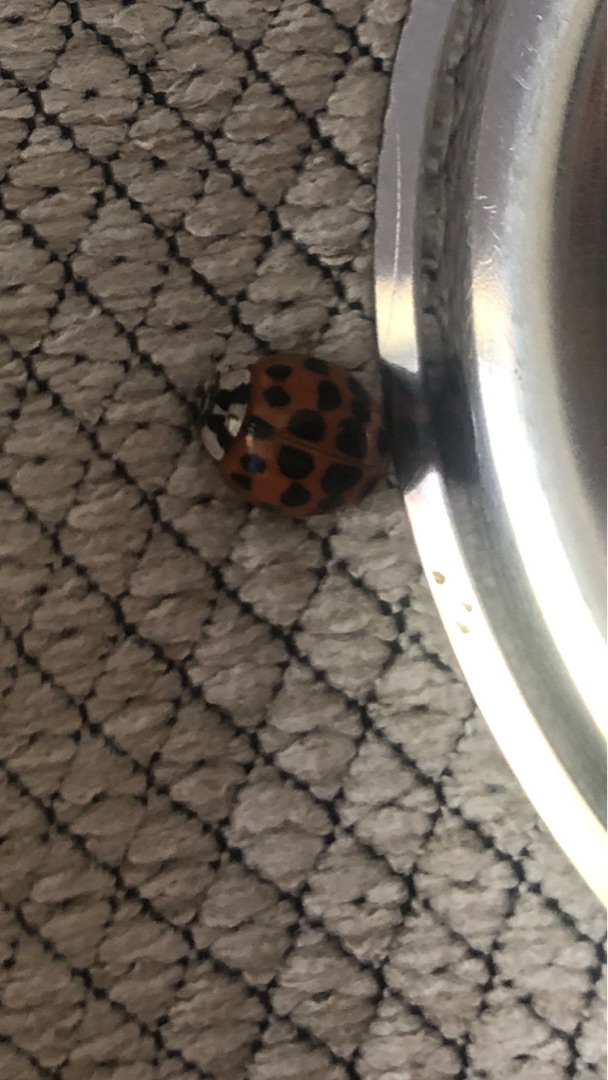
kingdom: Animalia
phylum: Arthropoda
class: Insecta
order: Coleoptera
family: Coccinellidae
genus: Harmonia
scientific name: Harmonia axyridis
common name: Harlekinmariehøne
